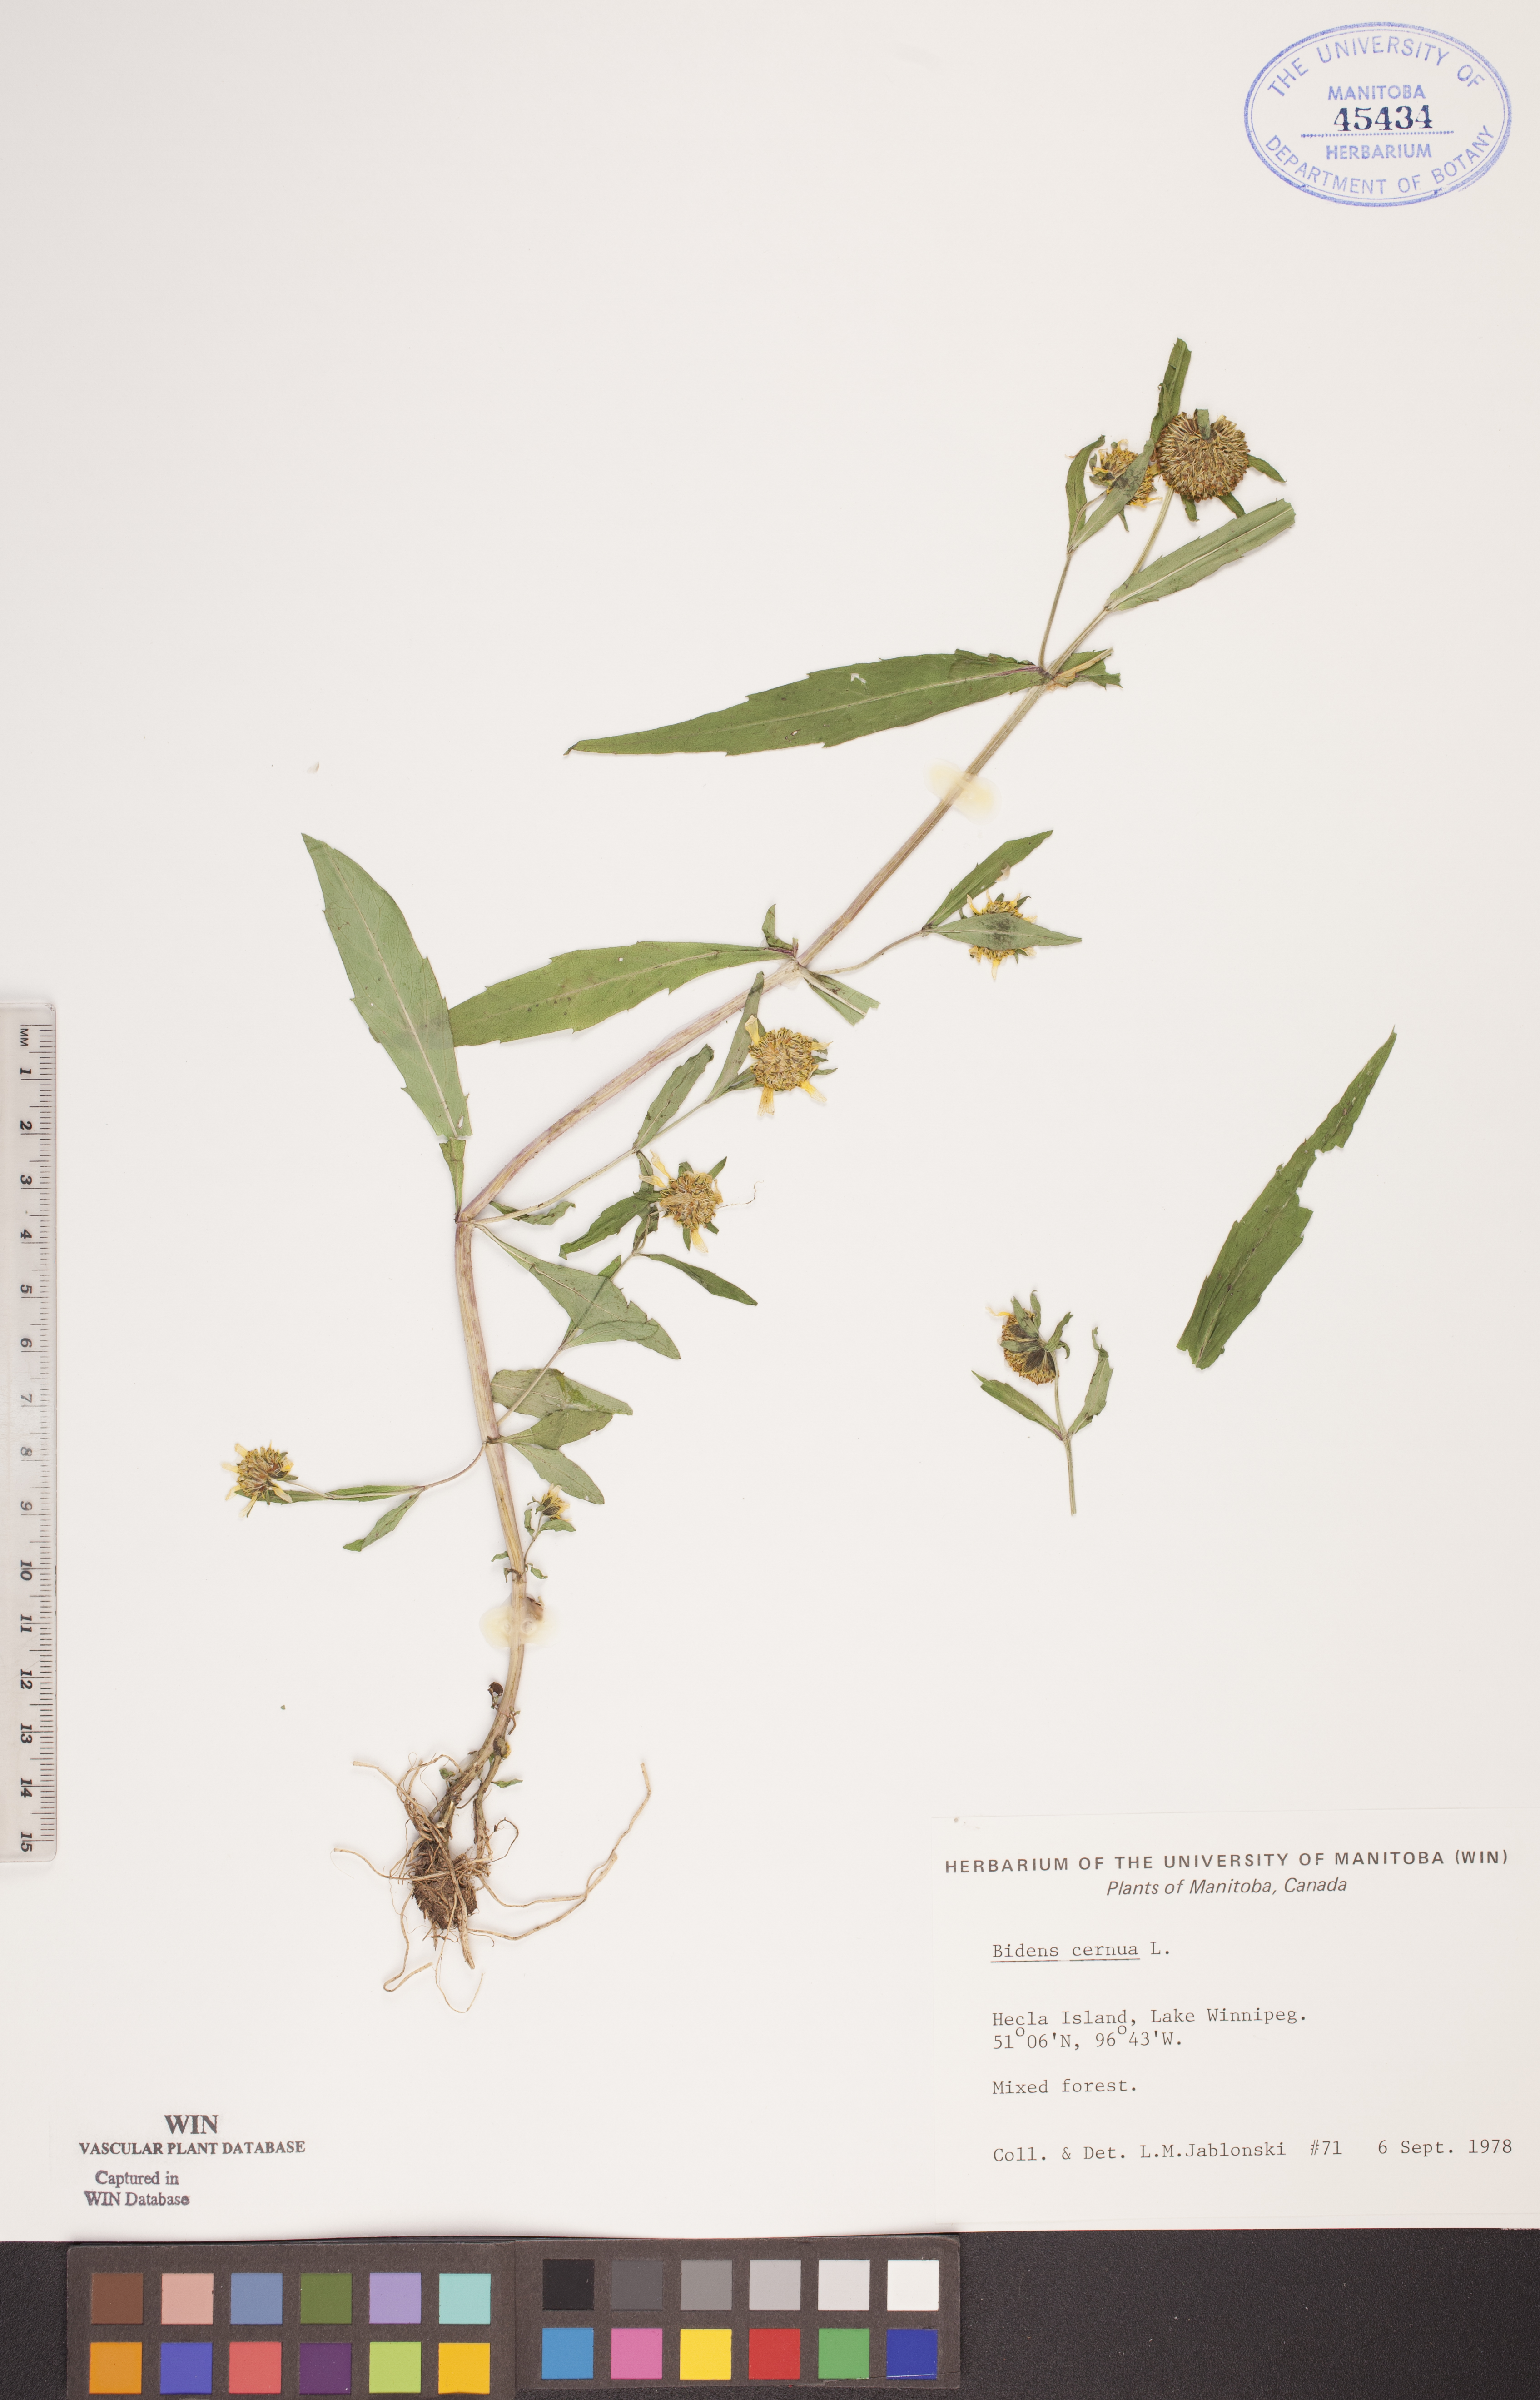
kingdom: Plantae
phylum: Tracheophyta
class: Magnoliopsida
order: Asterales
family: Asteraceae
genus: Bidens
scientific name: Bidens cernua
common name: Nodding bur-marigold
